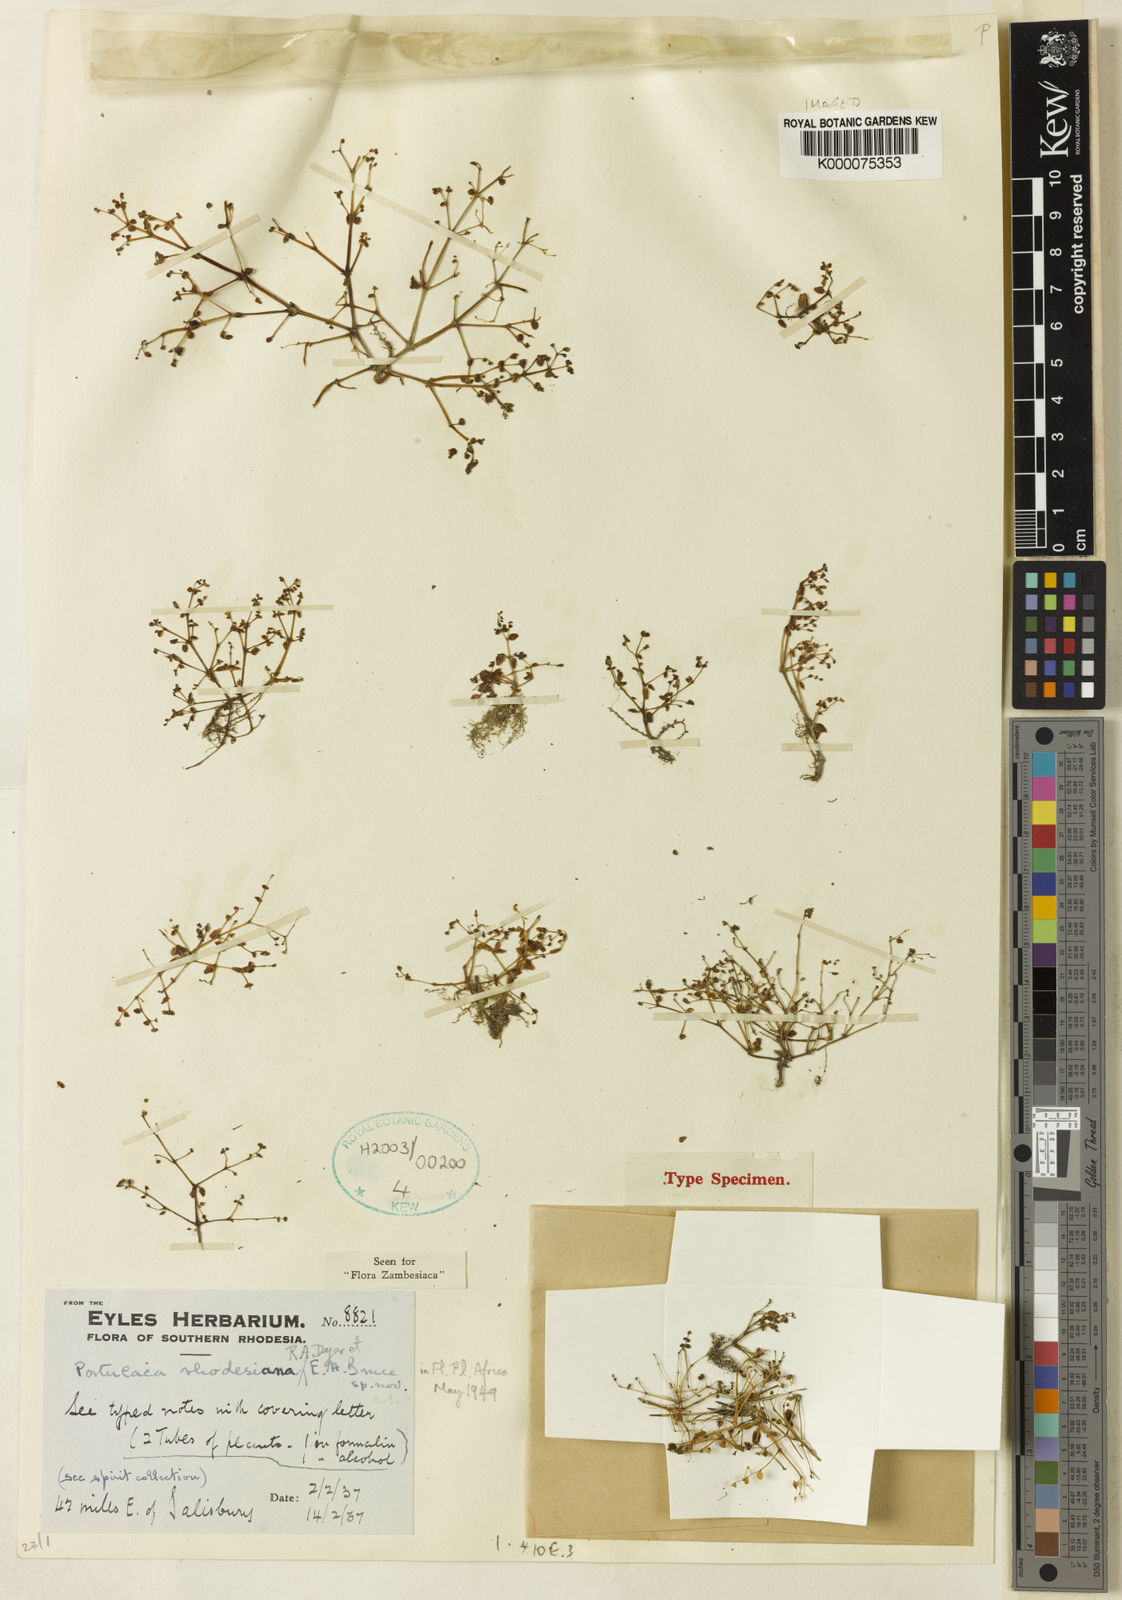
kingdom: Plantae
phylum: Tracheophyta
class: Magnoliopsida
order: Caryophyllales
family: Portulacaceae
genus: Portulaca
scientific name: Portulaca rhodesiana
